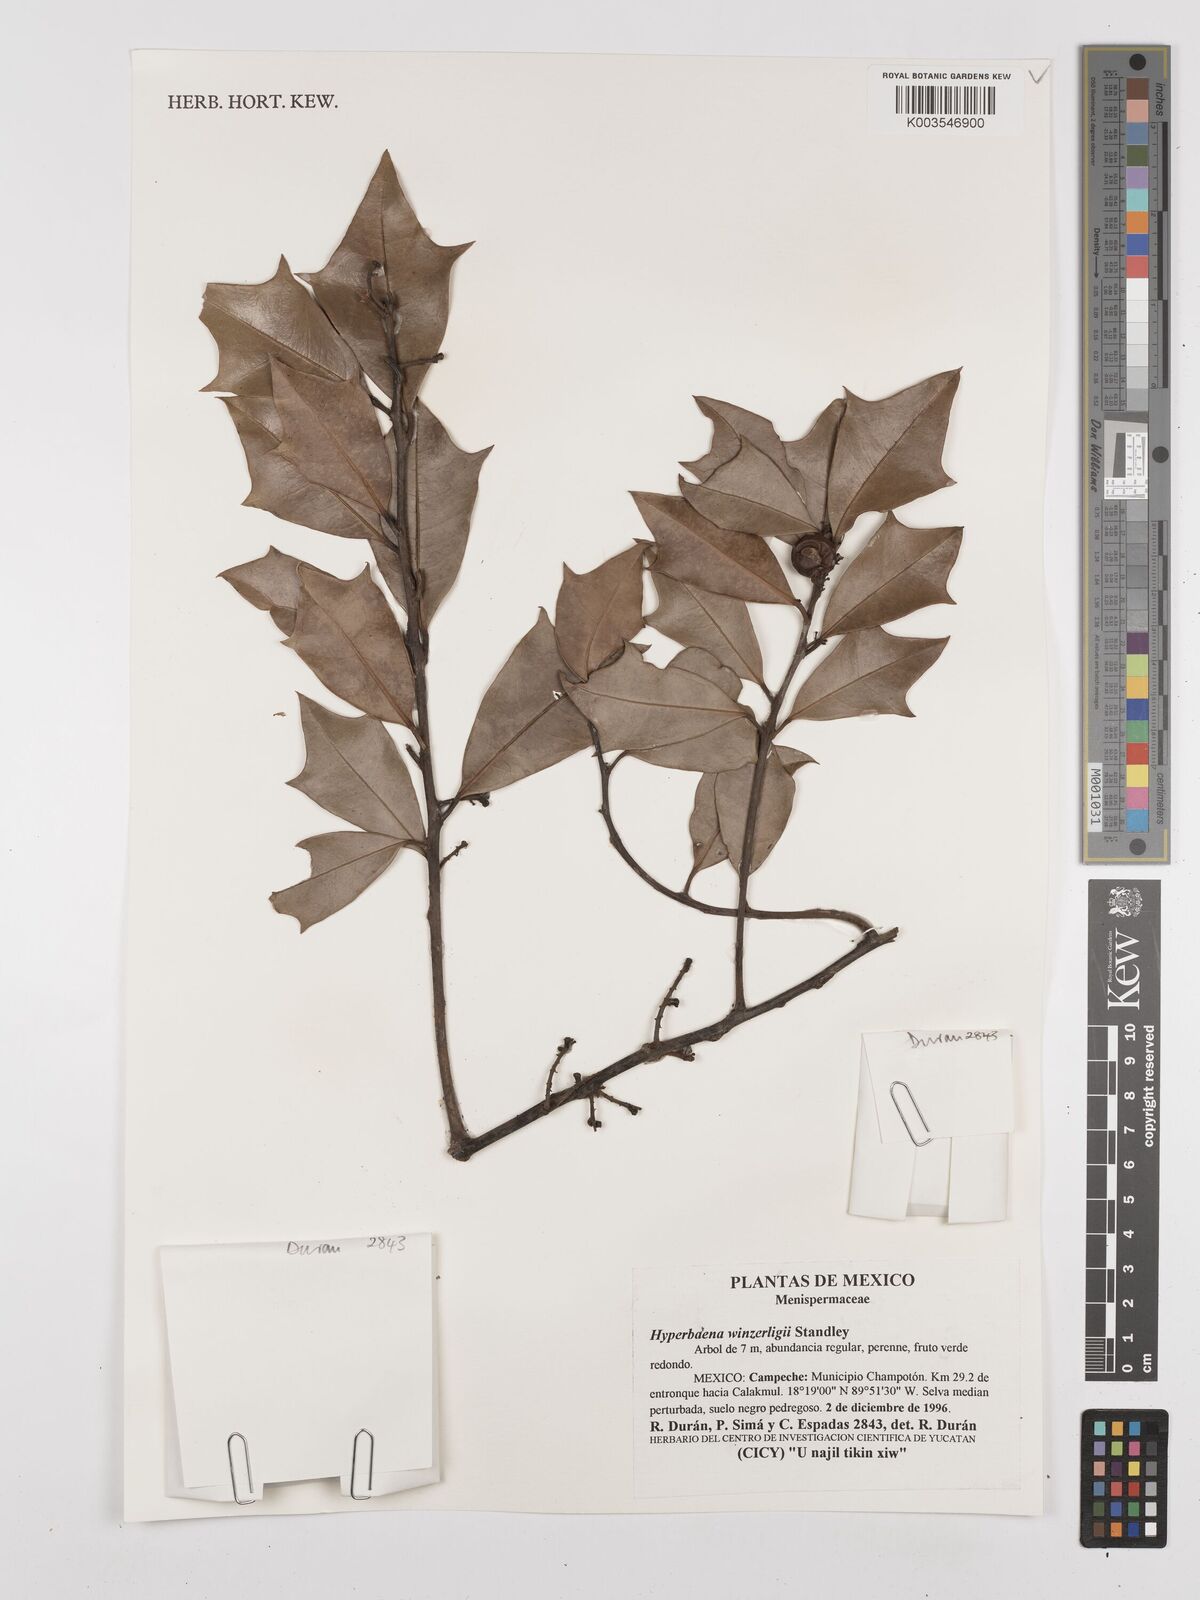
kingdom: Plantae
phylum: Tracheophyta
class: Magnoliopsida
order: Ranunculales
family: Menispermaceae
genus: Hyperbaena
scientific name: Hyperbaena winzerlingii
